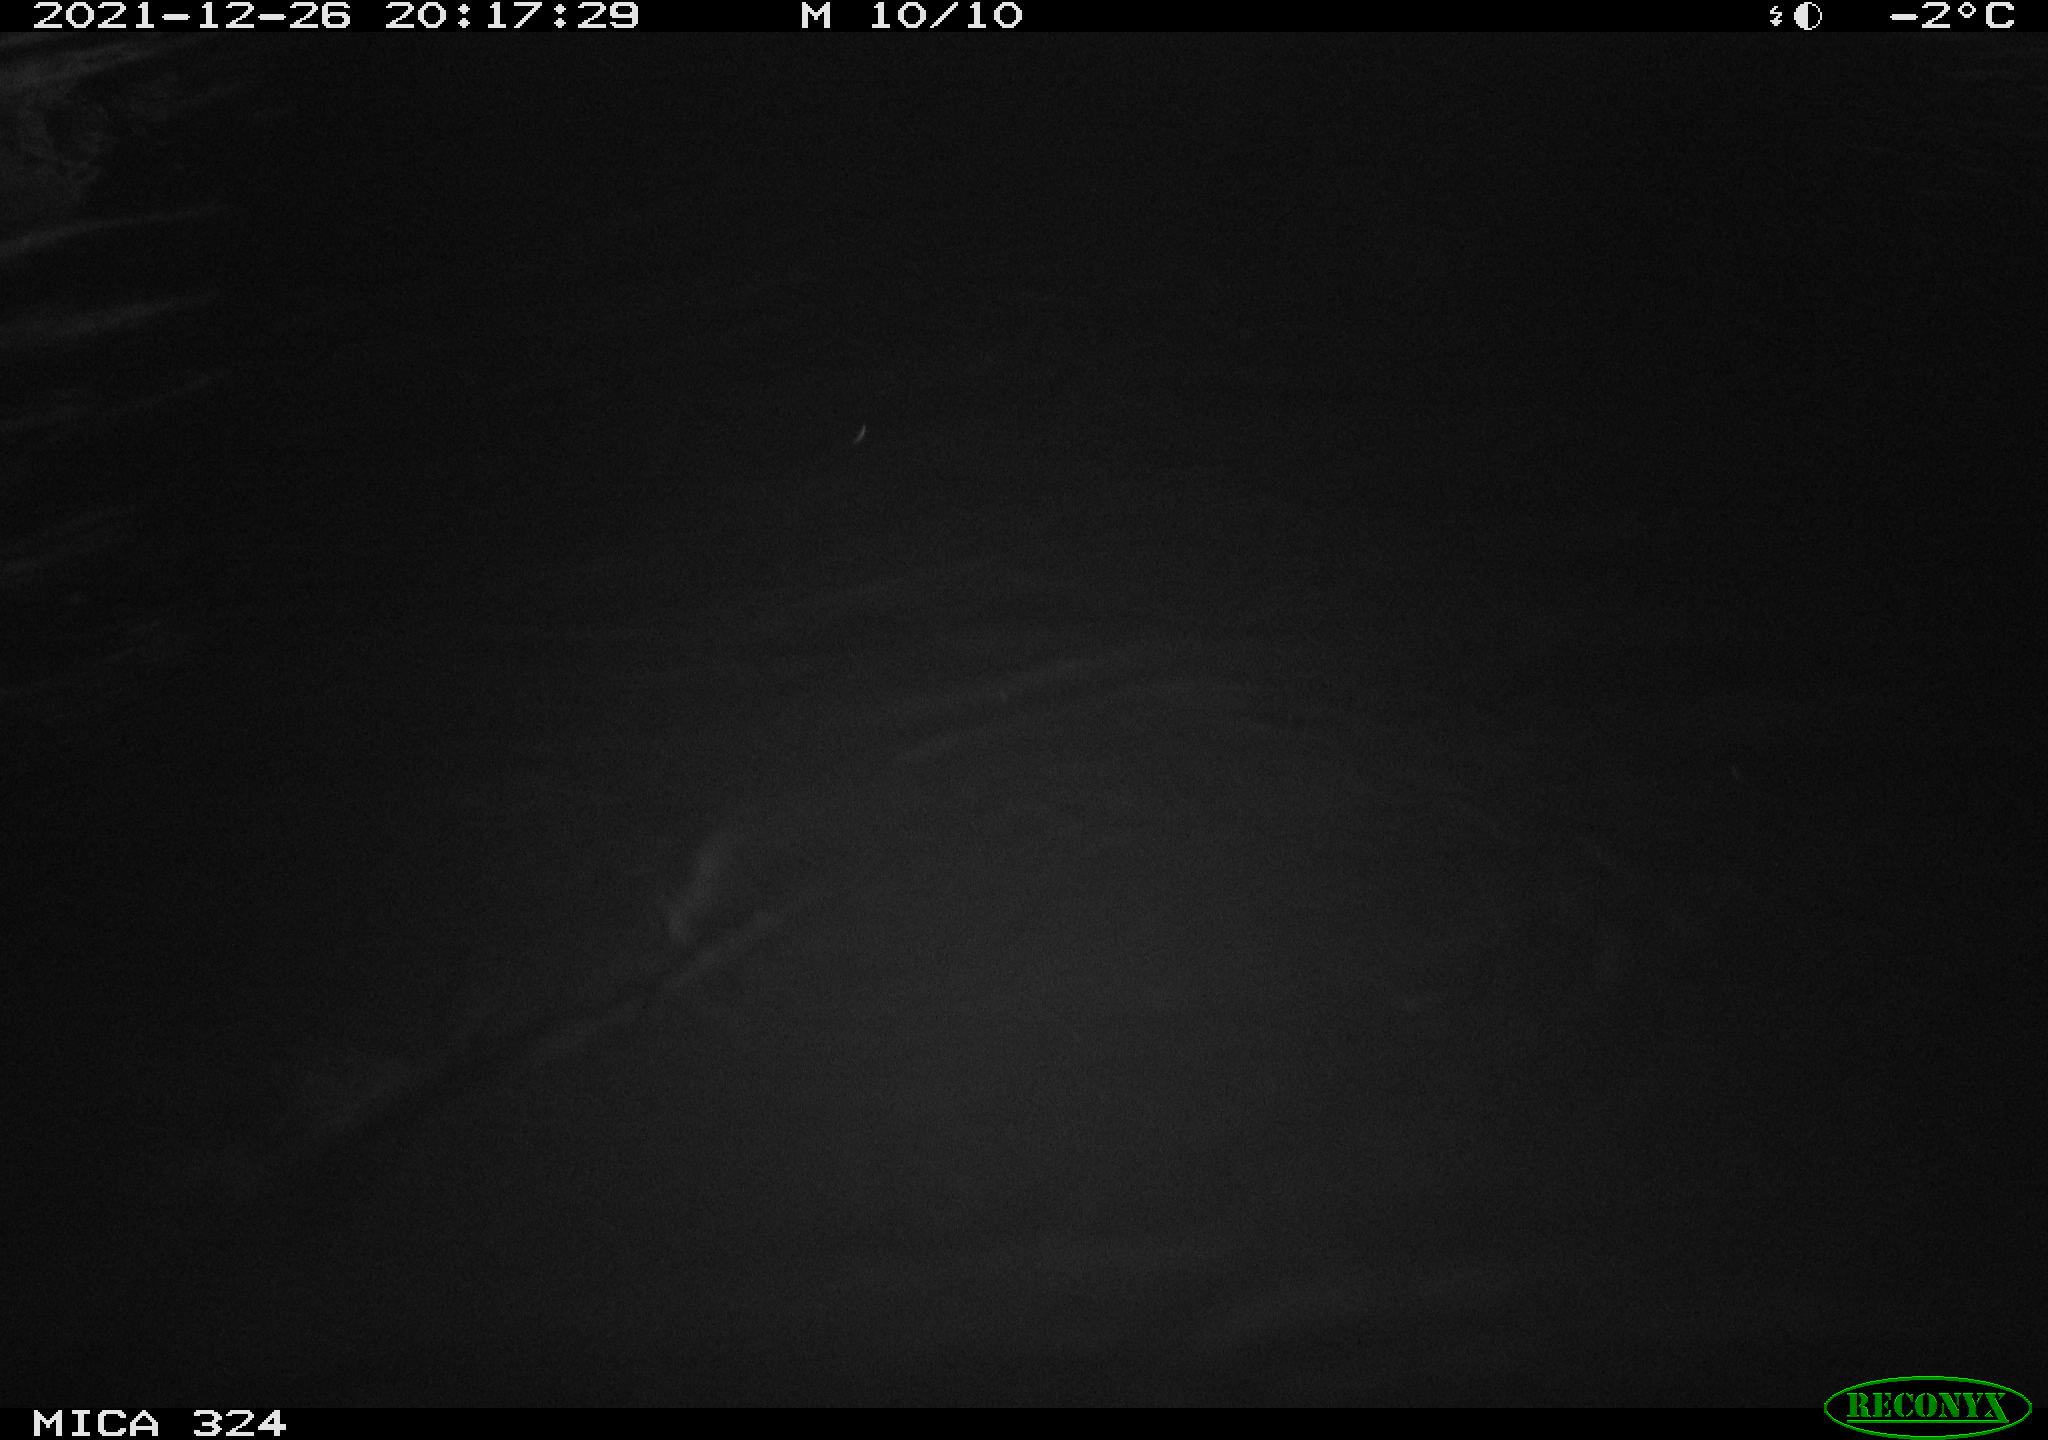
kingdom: Animalia
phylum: Chordata
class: Aves
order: Anseriformes
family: Anatidae
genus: Anas
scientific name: Anas platyrhynchos
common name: Mallard
